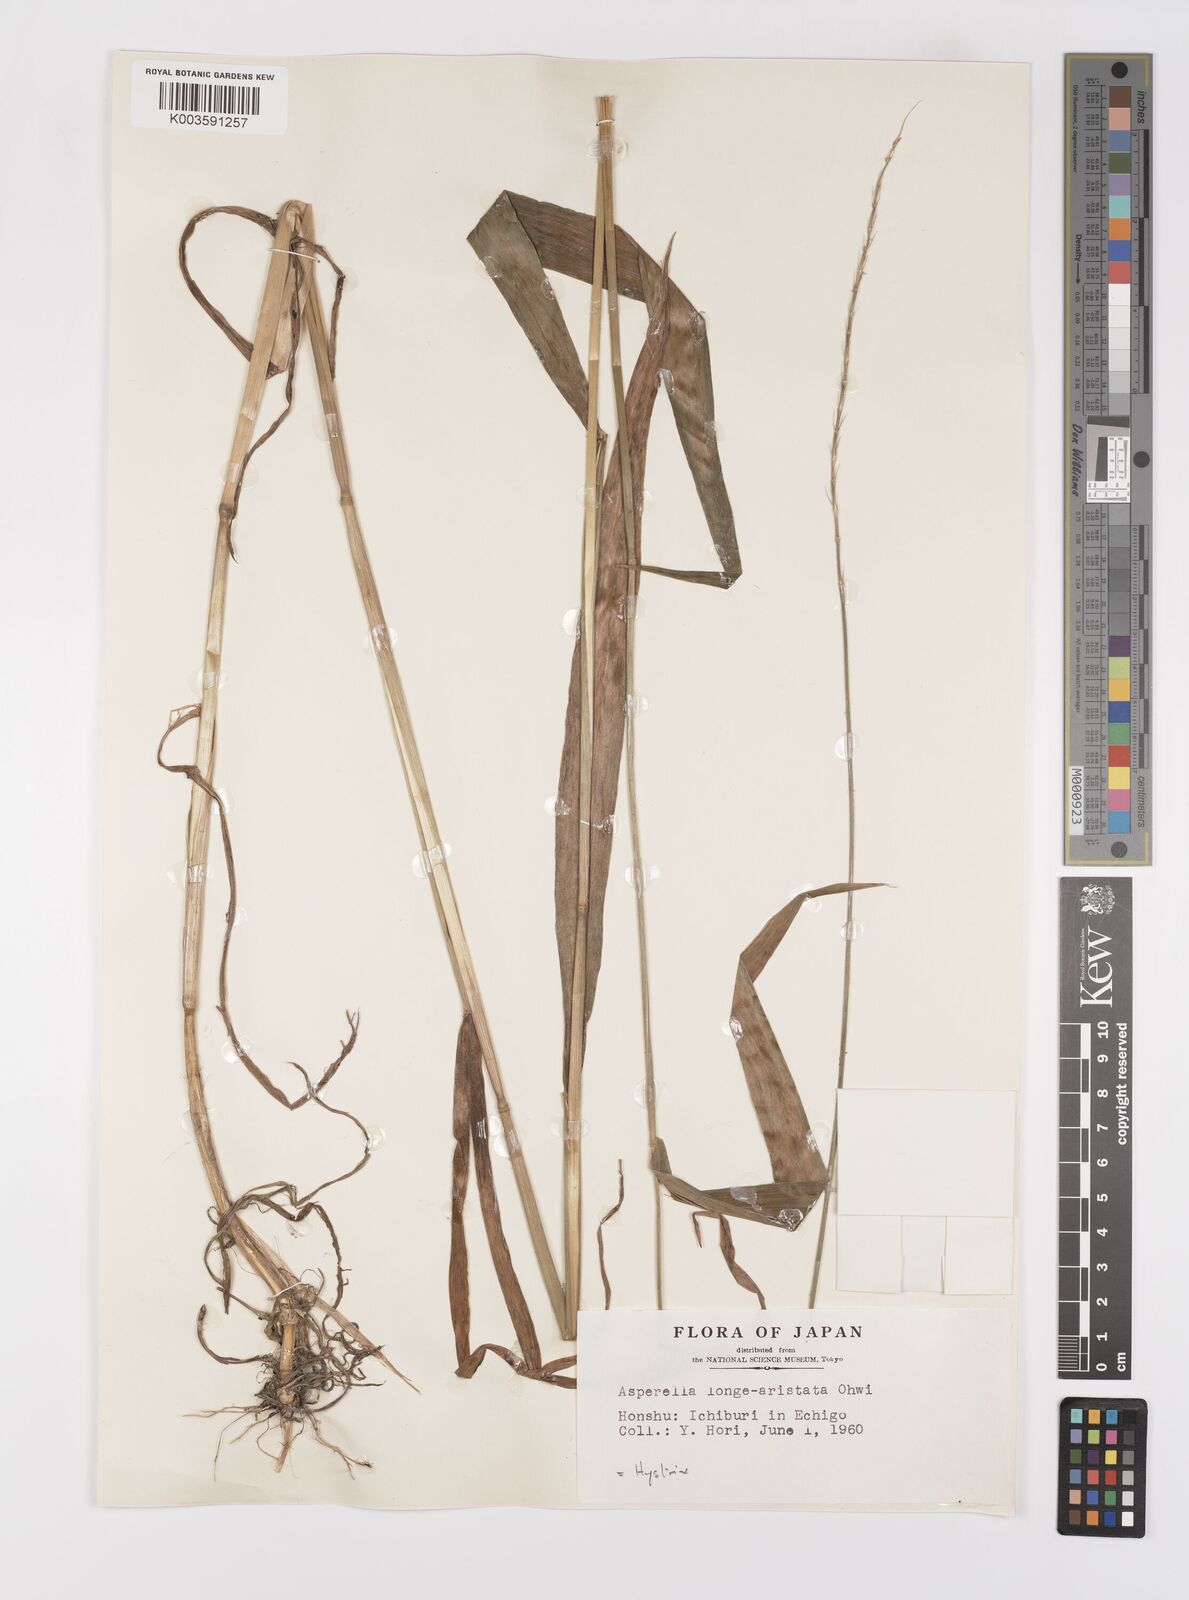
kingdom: Plantae
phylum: Tracheophyta
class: Liliopsida
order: Poales
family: Poaceae
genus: Leymus
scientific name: Leymus duthiei
